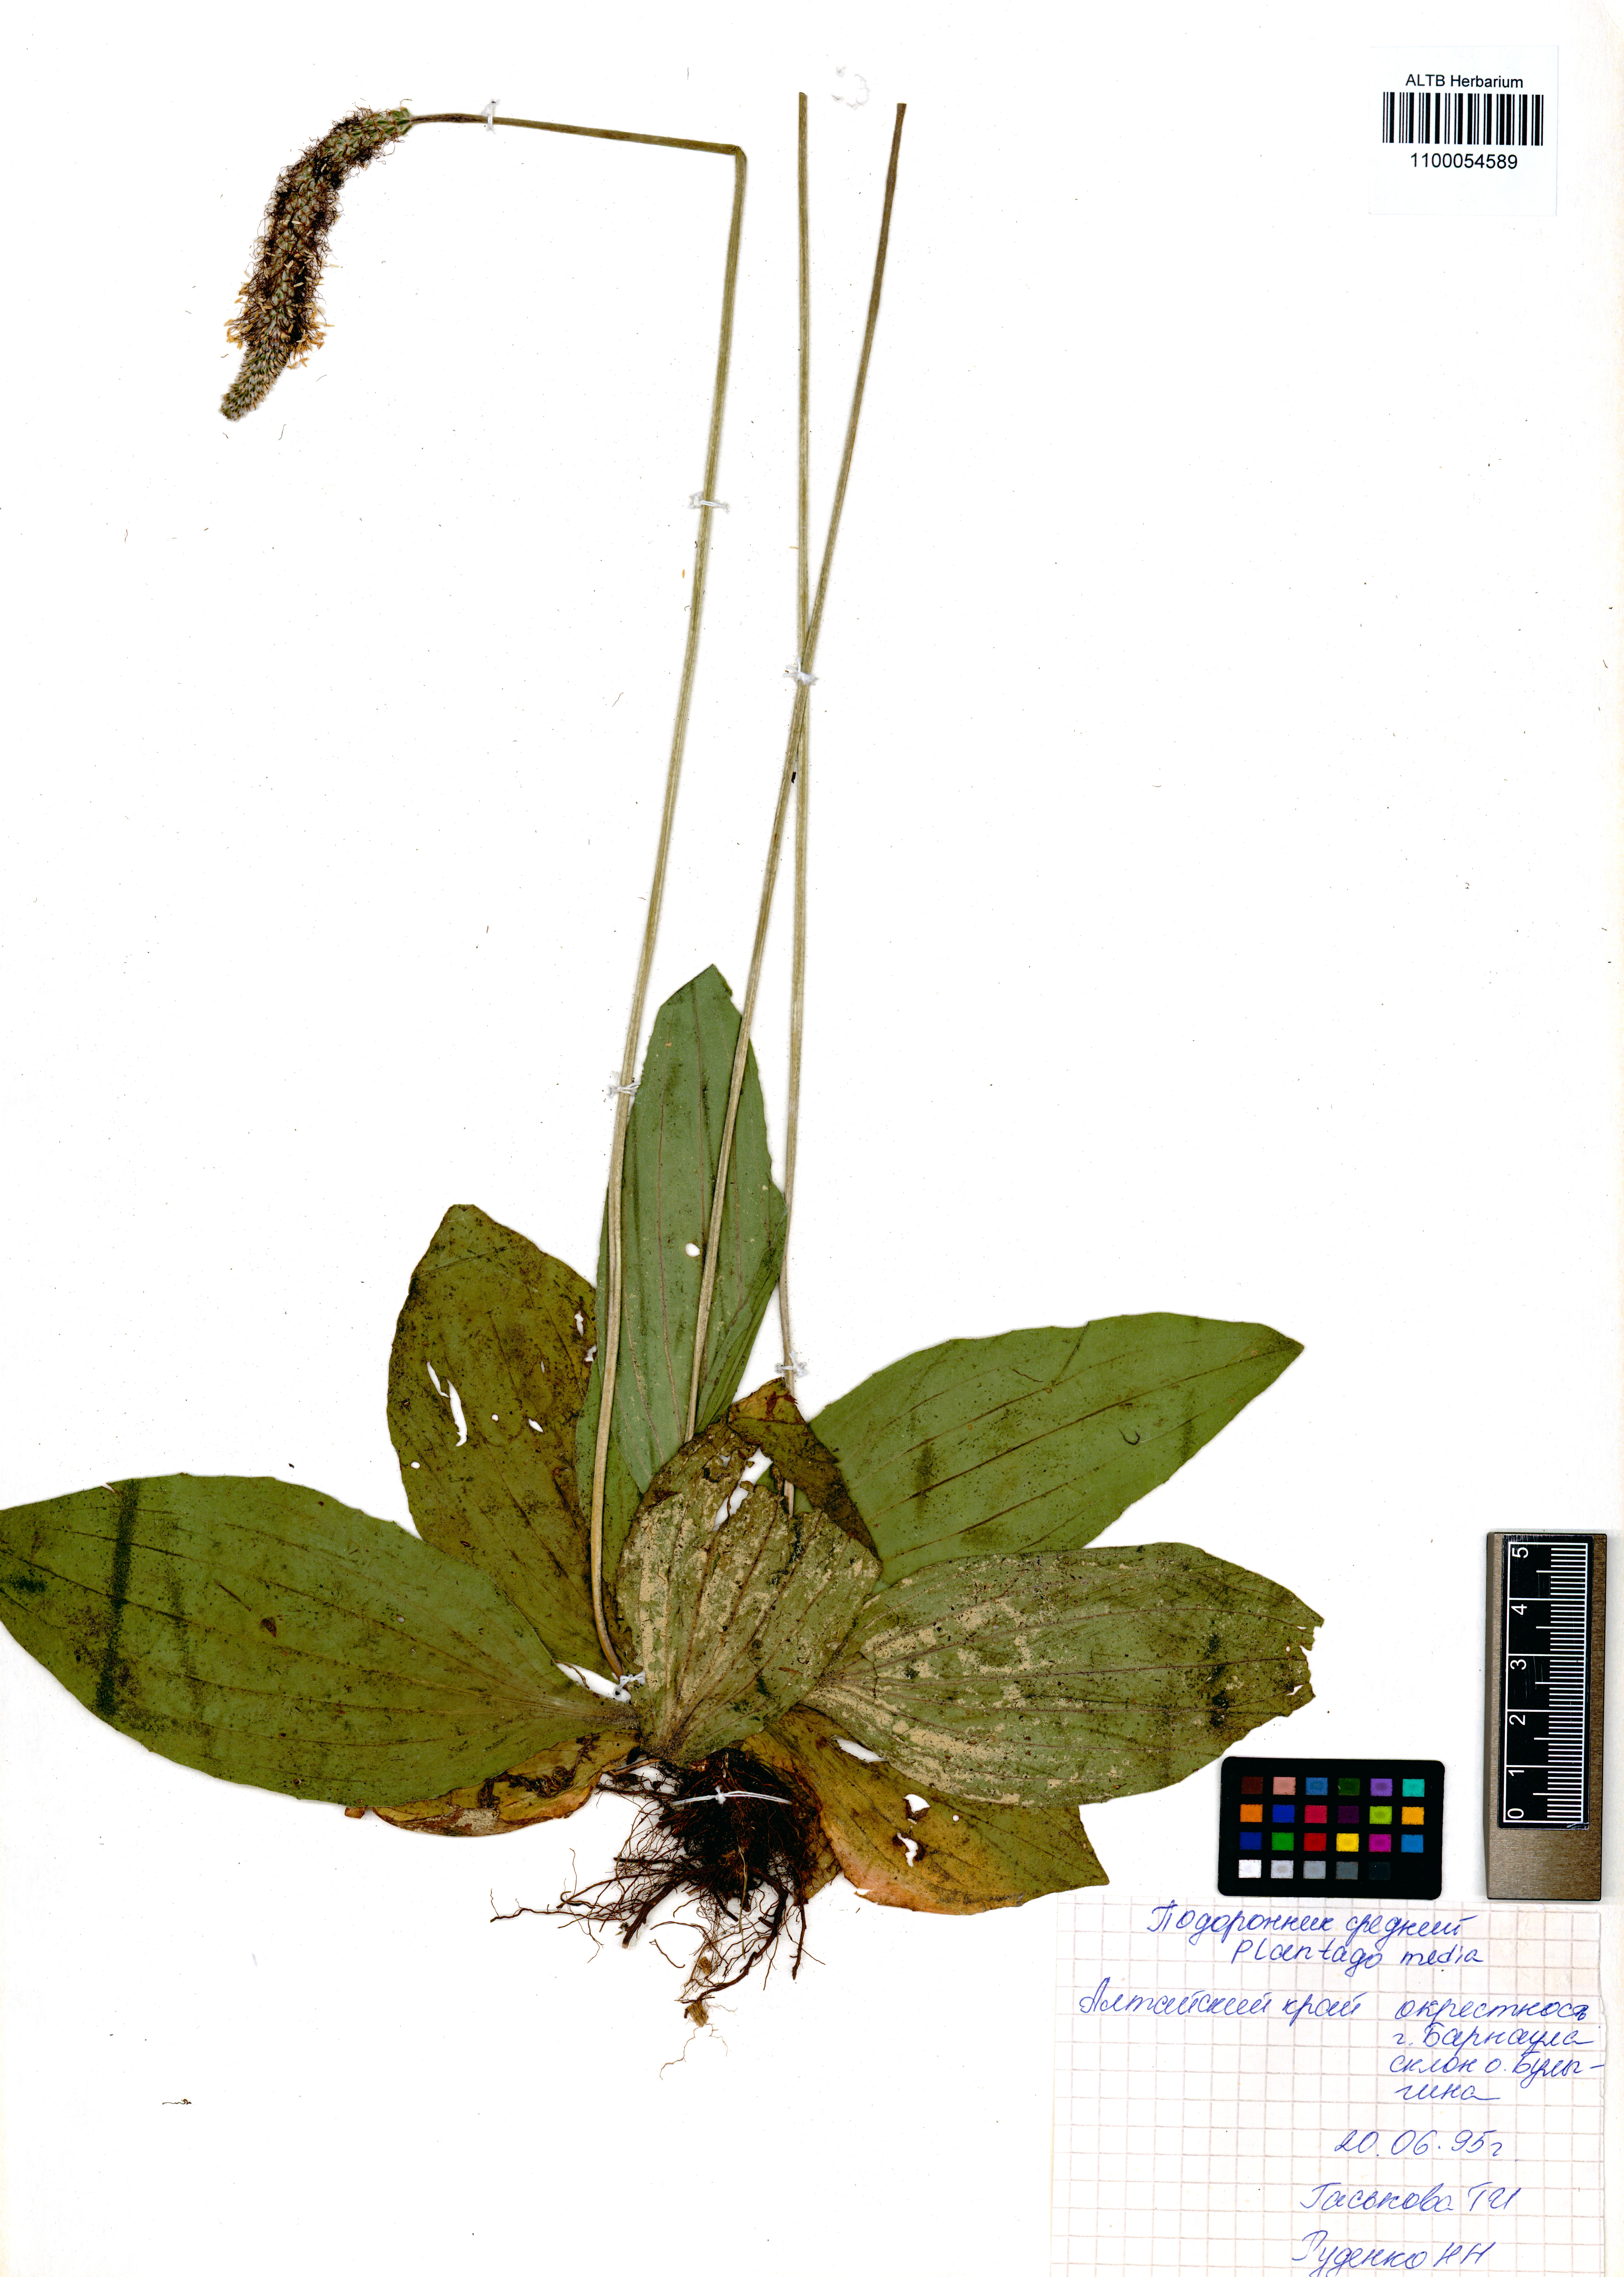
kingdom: Plantae
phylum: Tracheophyta
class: Magnoliopsida
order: Lamiales
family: Plantaginaceae
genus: Plantago
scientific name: Plantago media
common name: Hoary plantain
